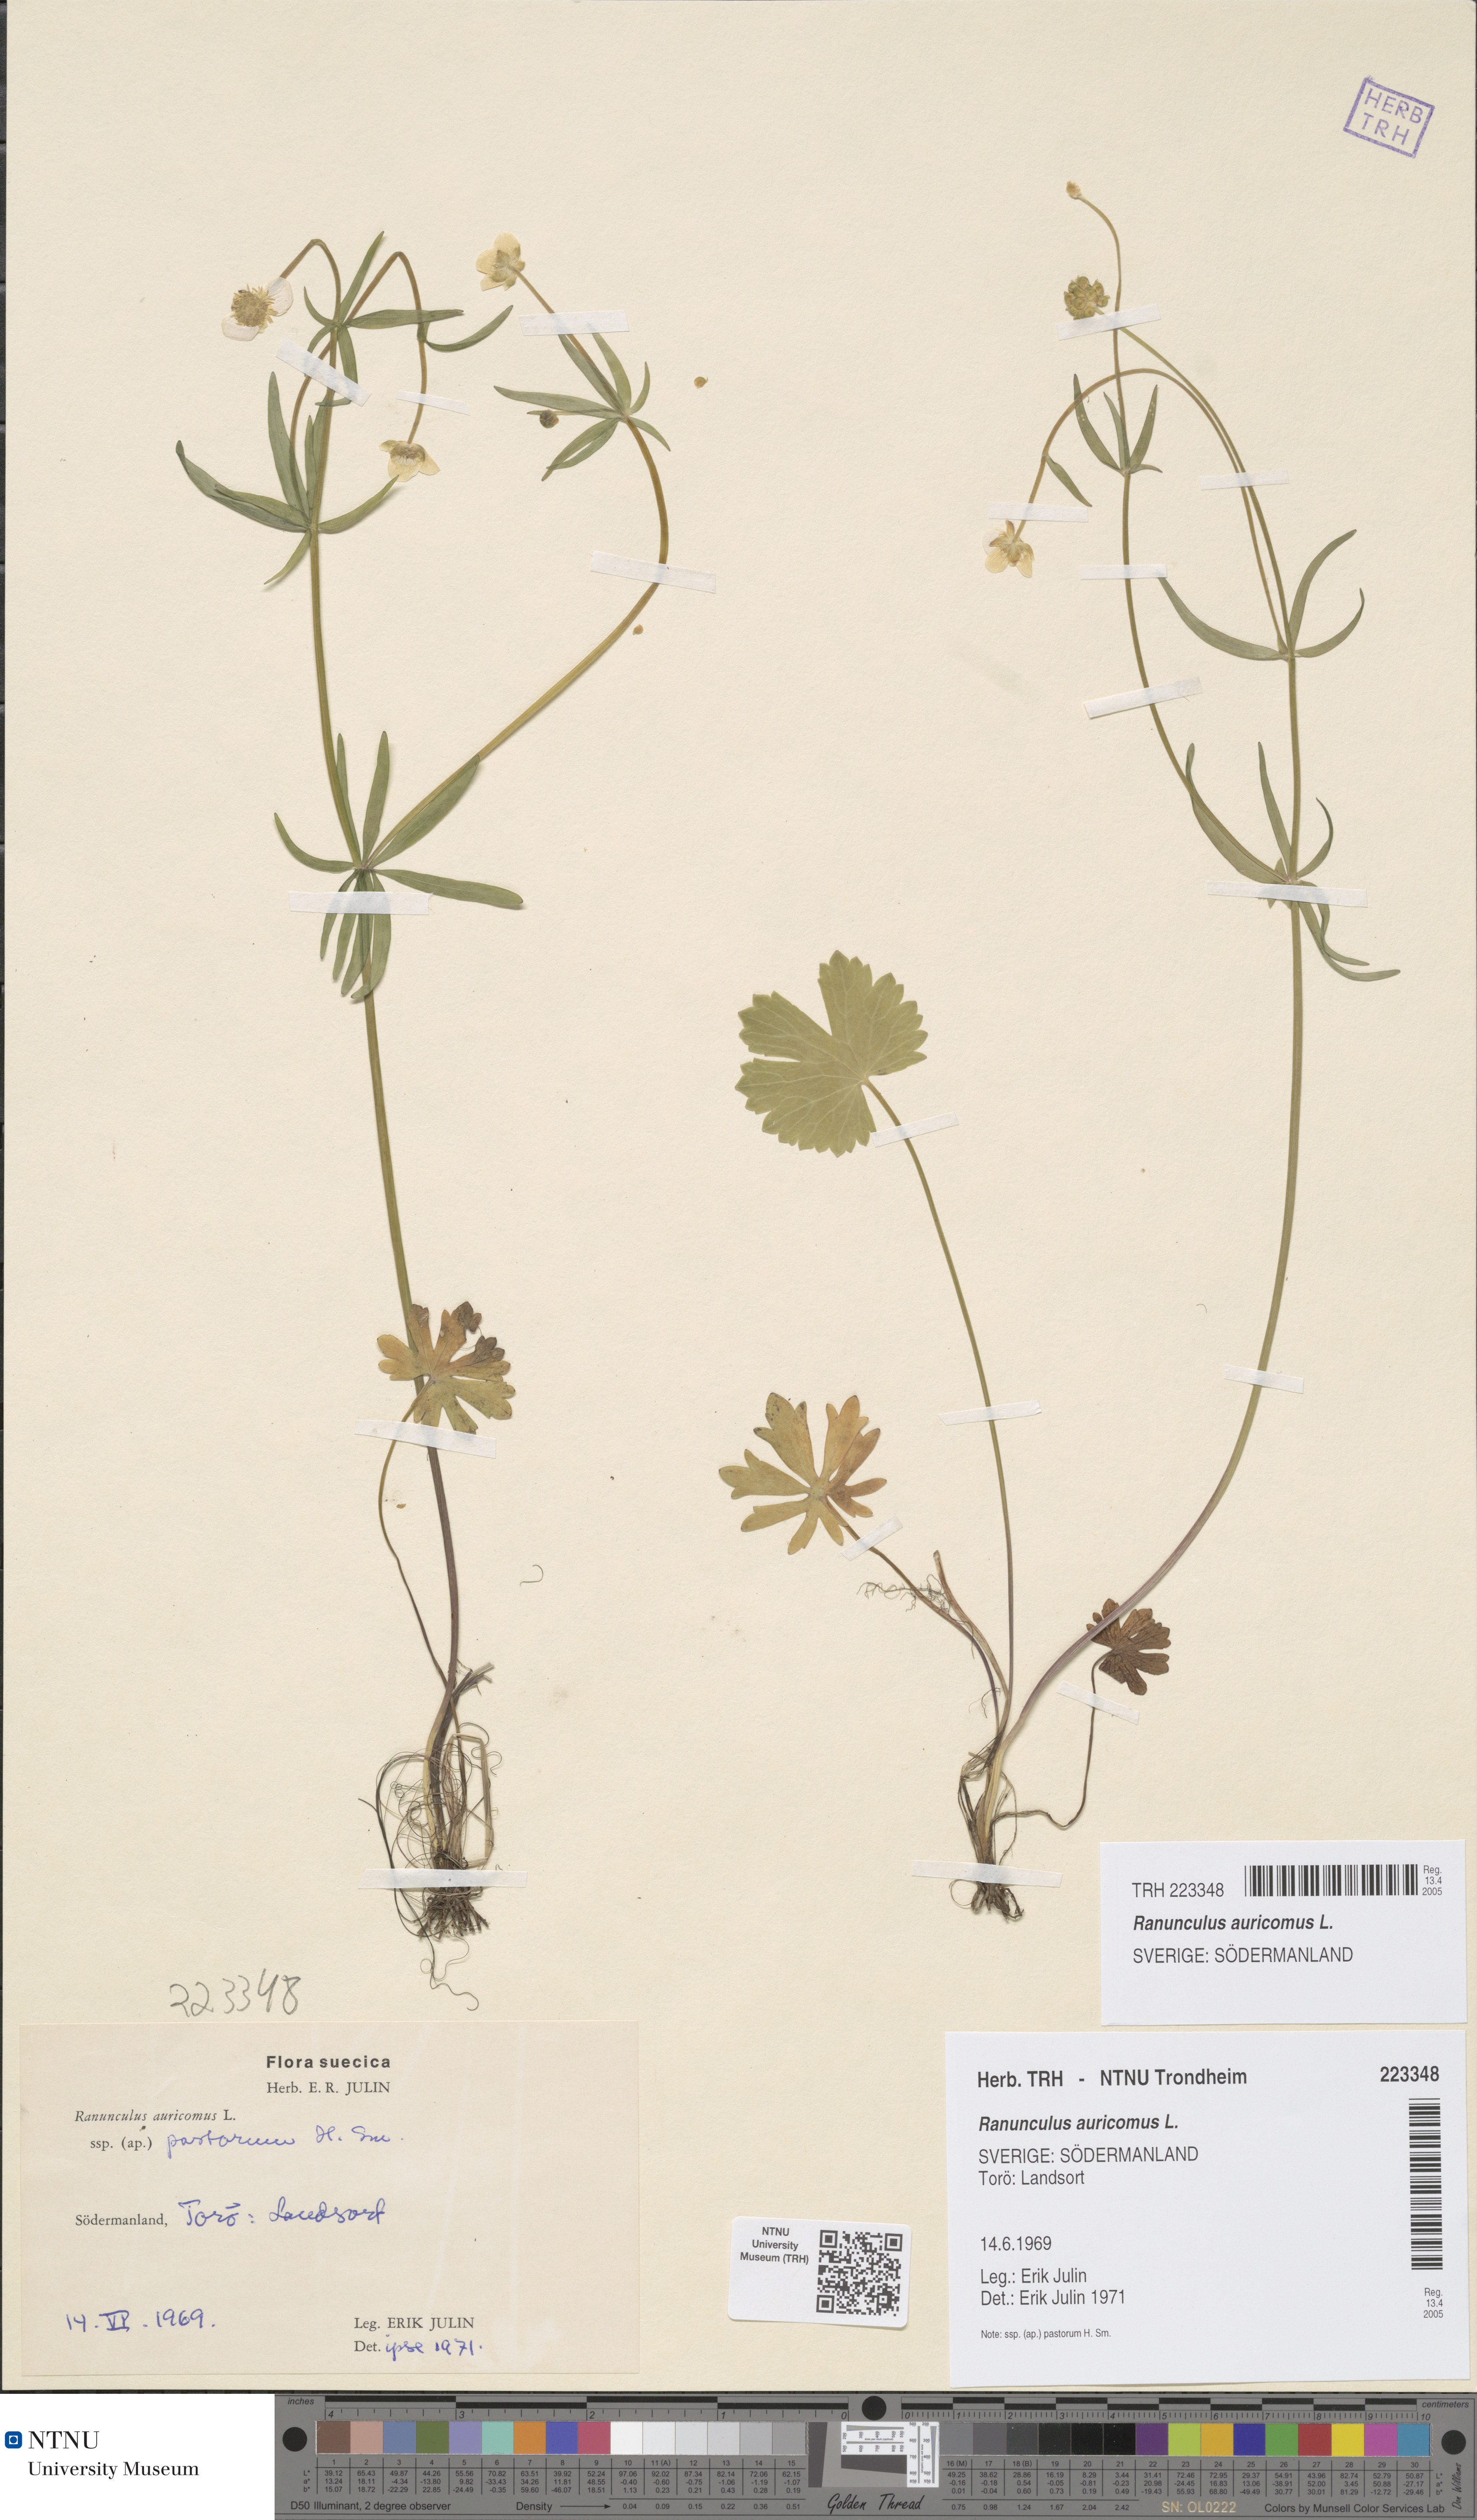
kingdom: Plantae
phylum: Tracheophyta
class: Magnoliopsida
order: Ranunculales
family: Ranunculaceae
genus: Ranunculus
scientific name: Ranunculus auricomus
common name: Goldilocks buttercup
